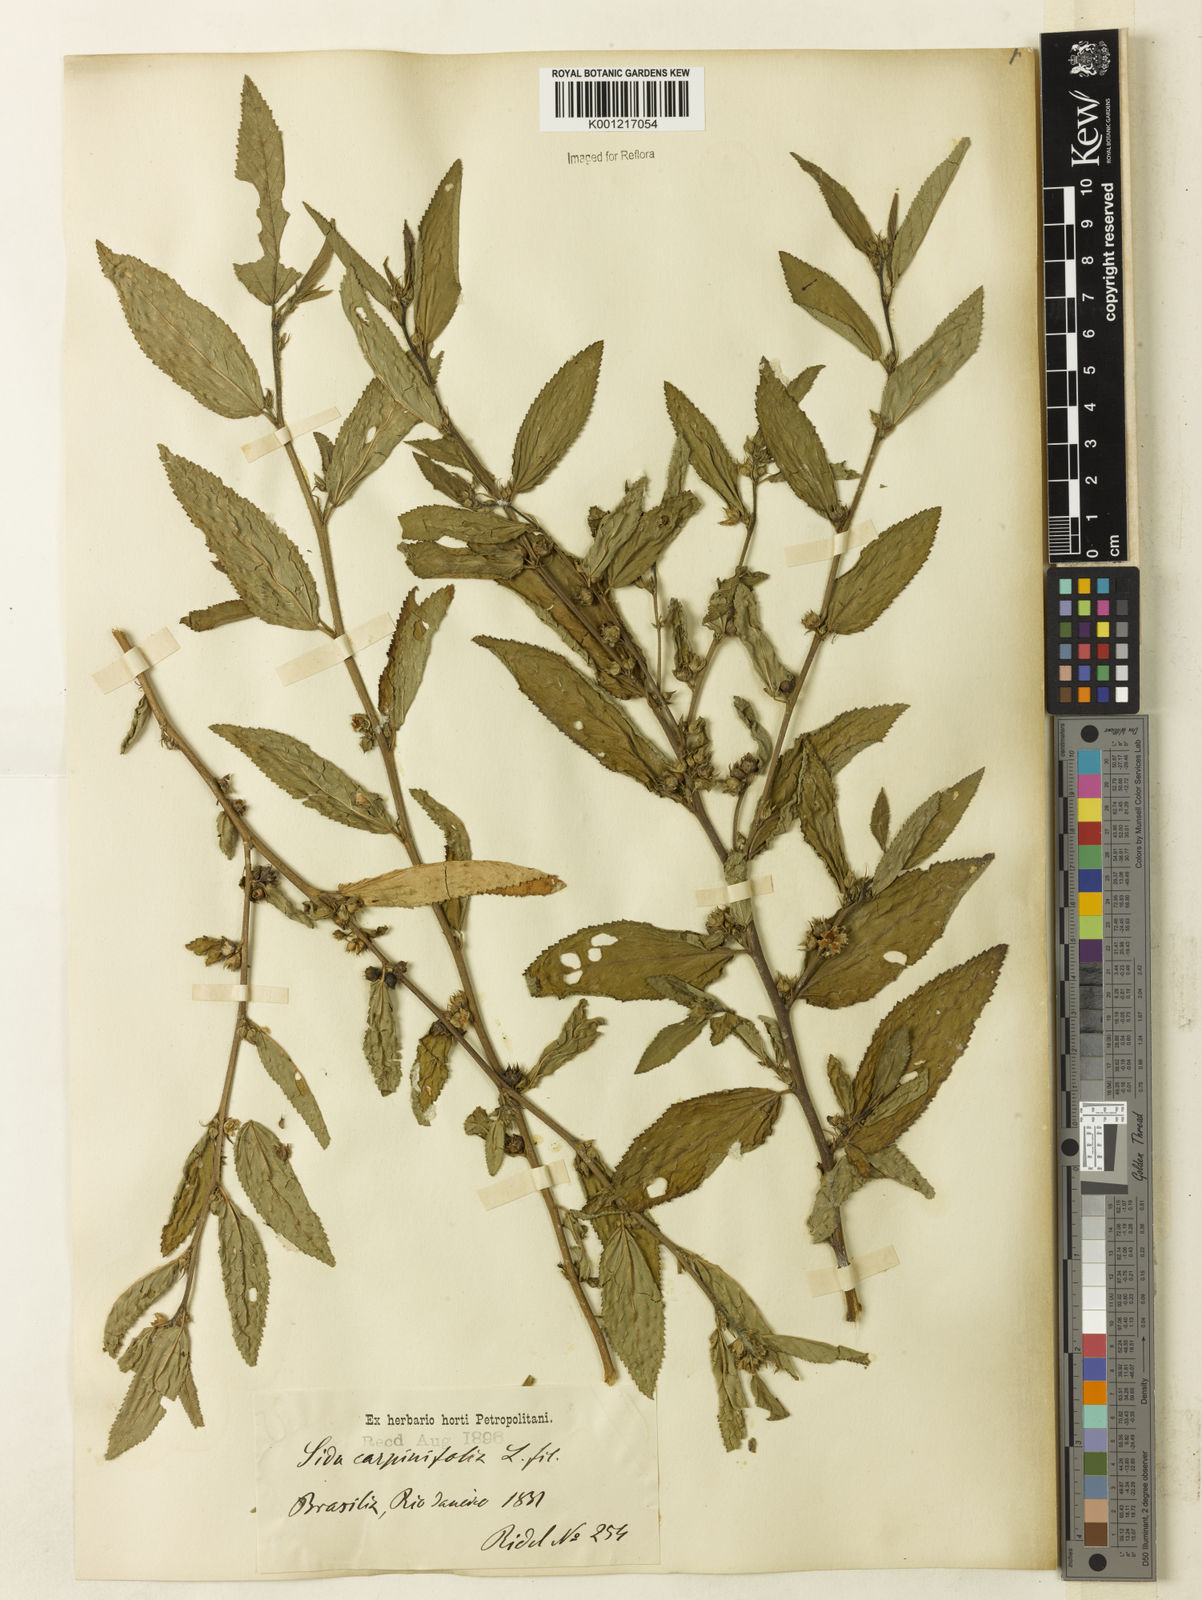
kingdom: Plantae
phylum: Tracheophyta
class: Magnoliopsida
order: Malvales
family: Malvaceae
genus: Sida
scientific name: Sida planicaulis
